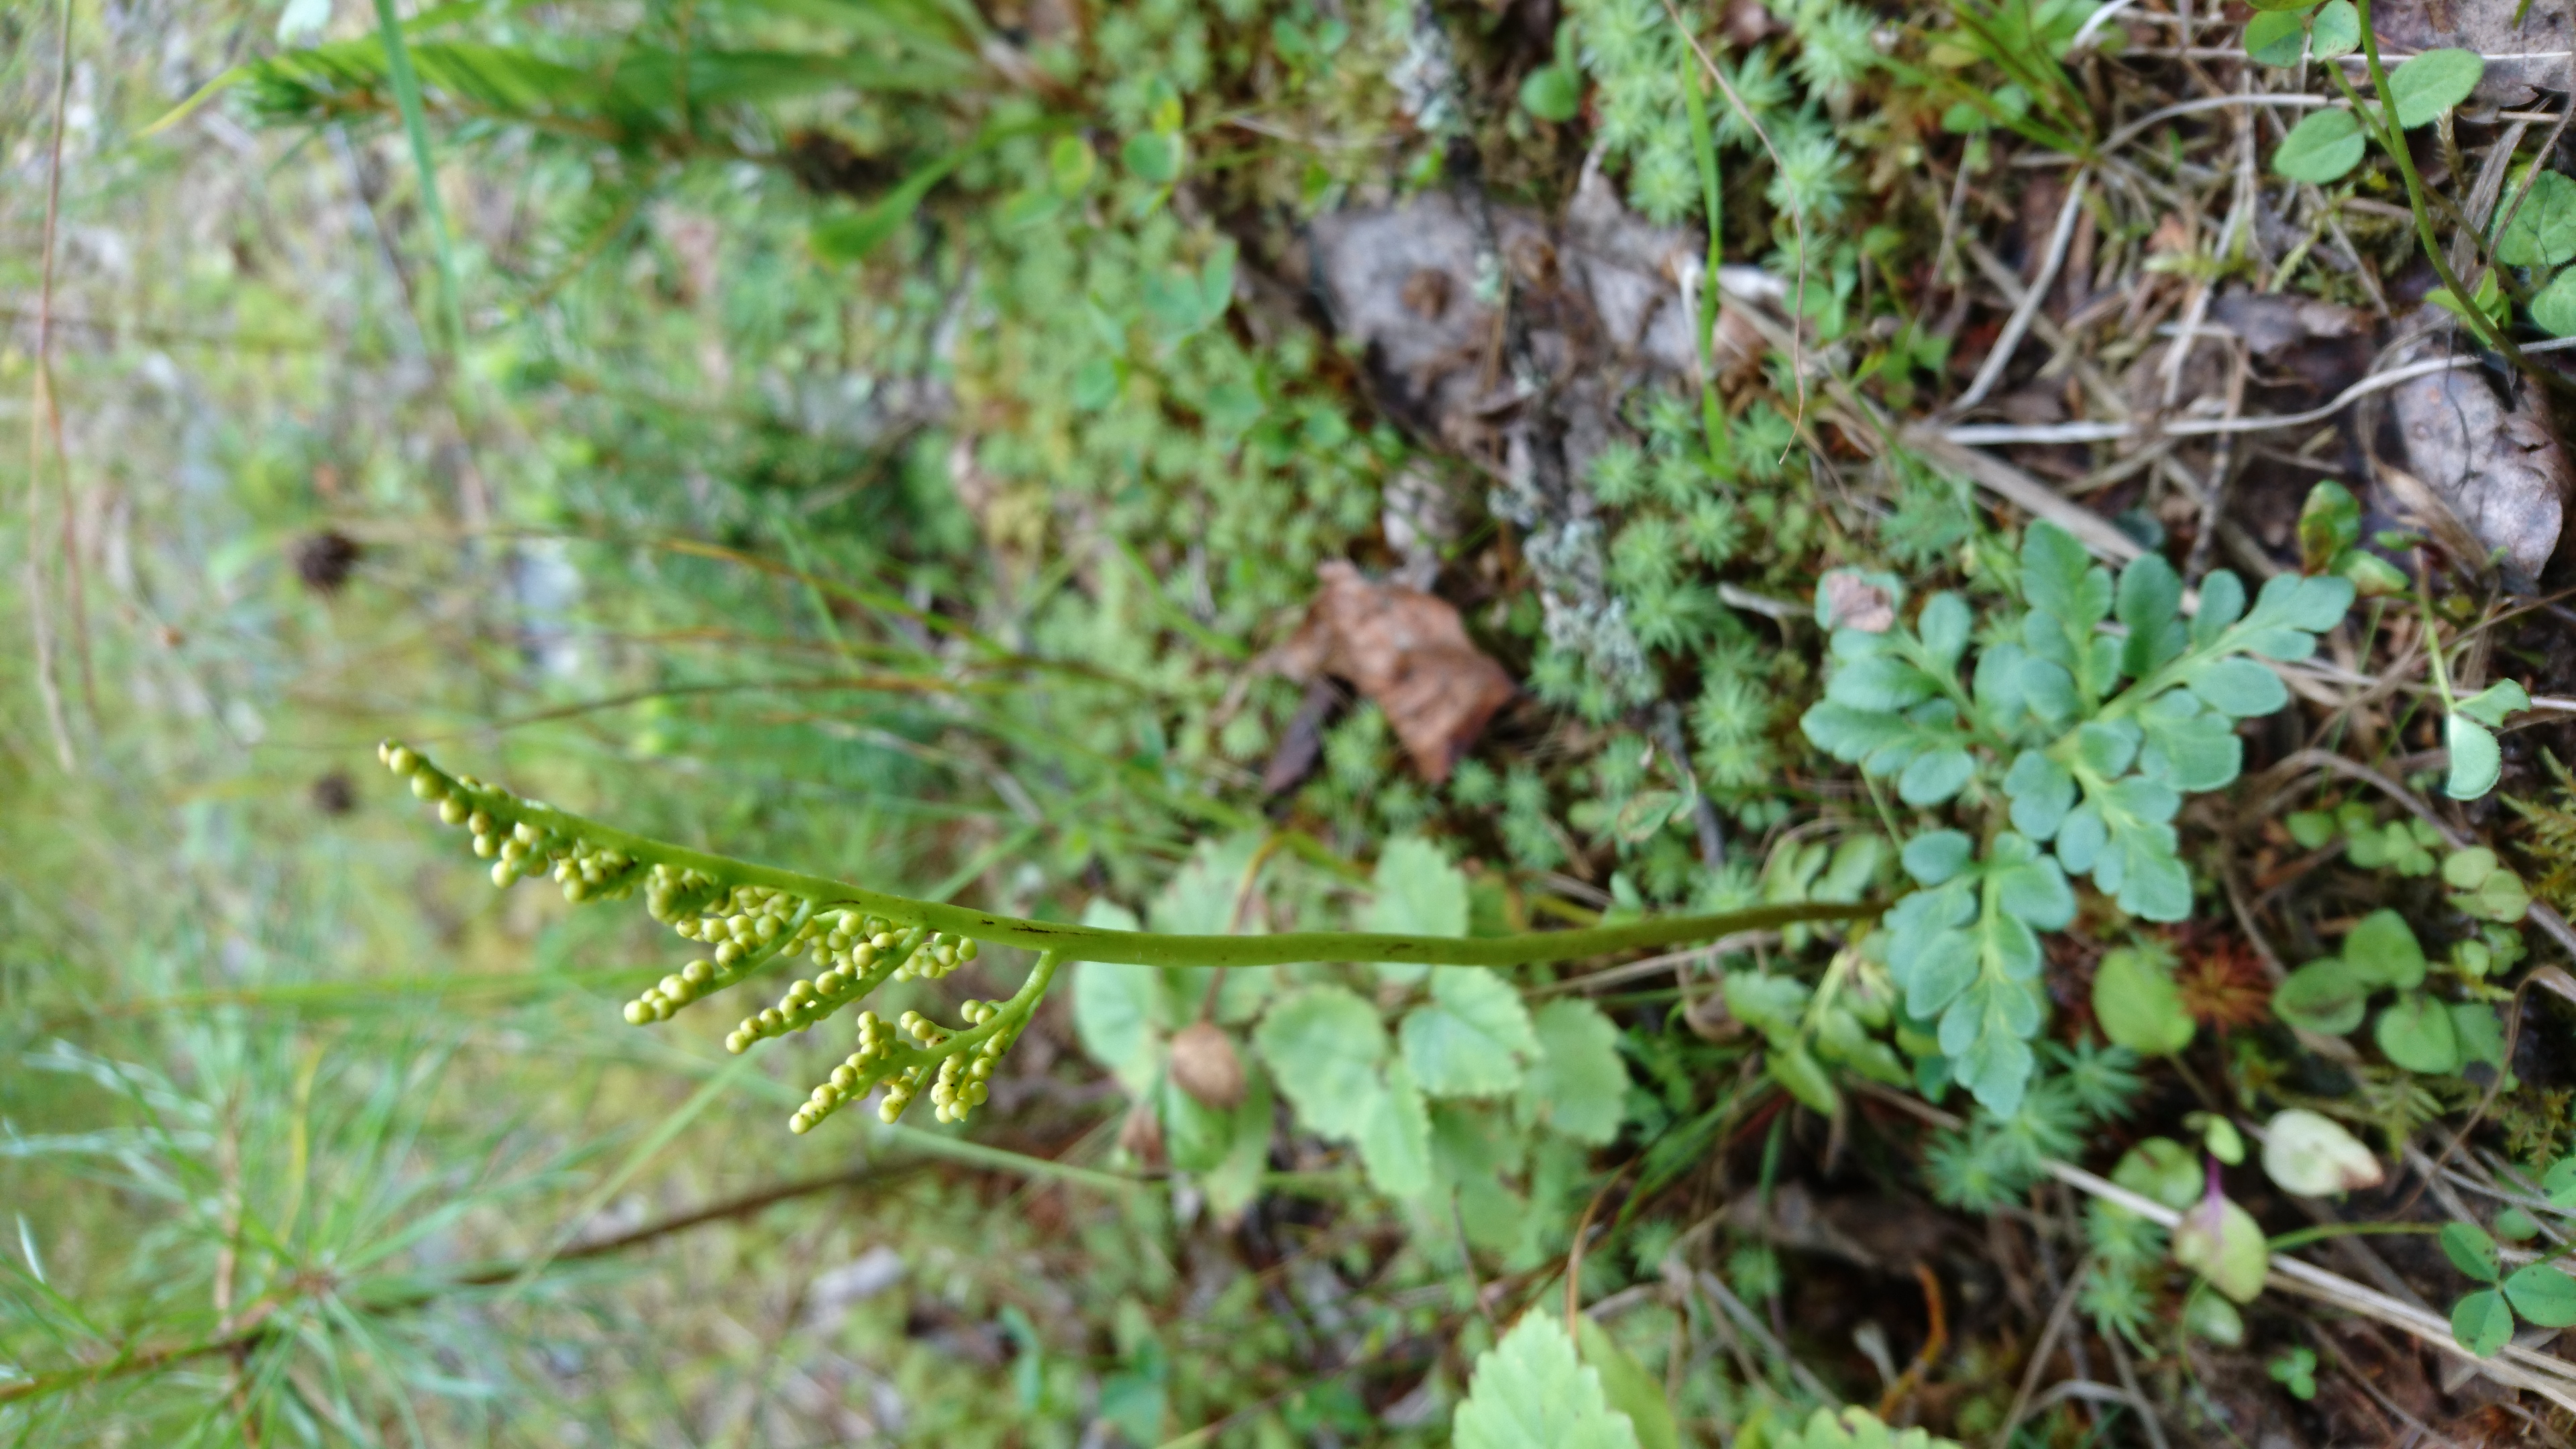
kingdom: Plantae
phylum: Tracheophyta
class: Polypodiopsida
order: Ophioglossales
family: Ophioglossaceae
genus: Sceptridium
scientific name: Sceptridium multifidum
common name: Leathery grape fern
